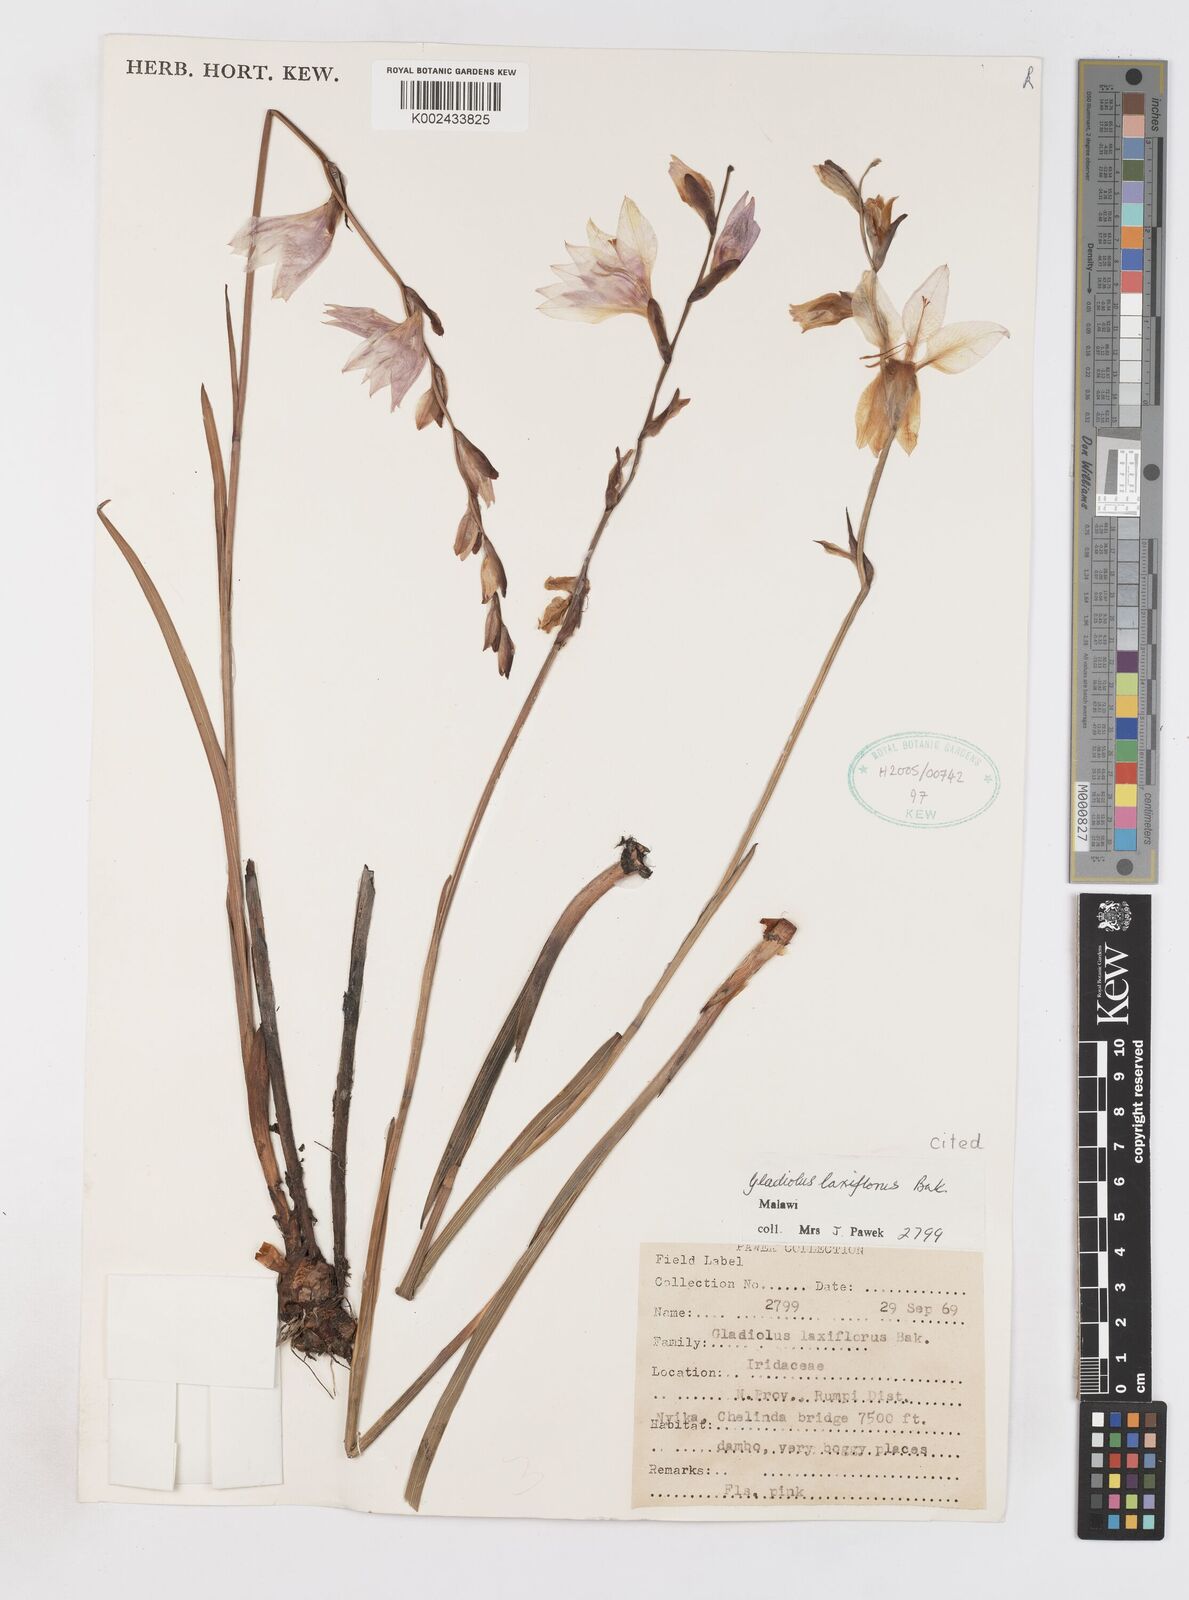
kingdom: Plantae
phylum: Tracheophyta
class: Liliopsida
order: Asparagales
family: Iridaceae
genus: Gladiolus
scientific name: Gladiolus laxiflorus
